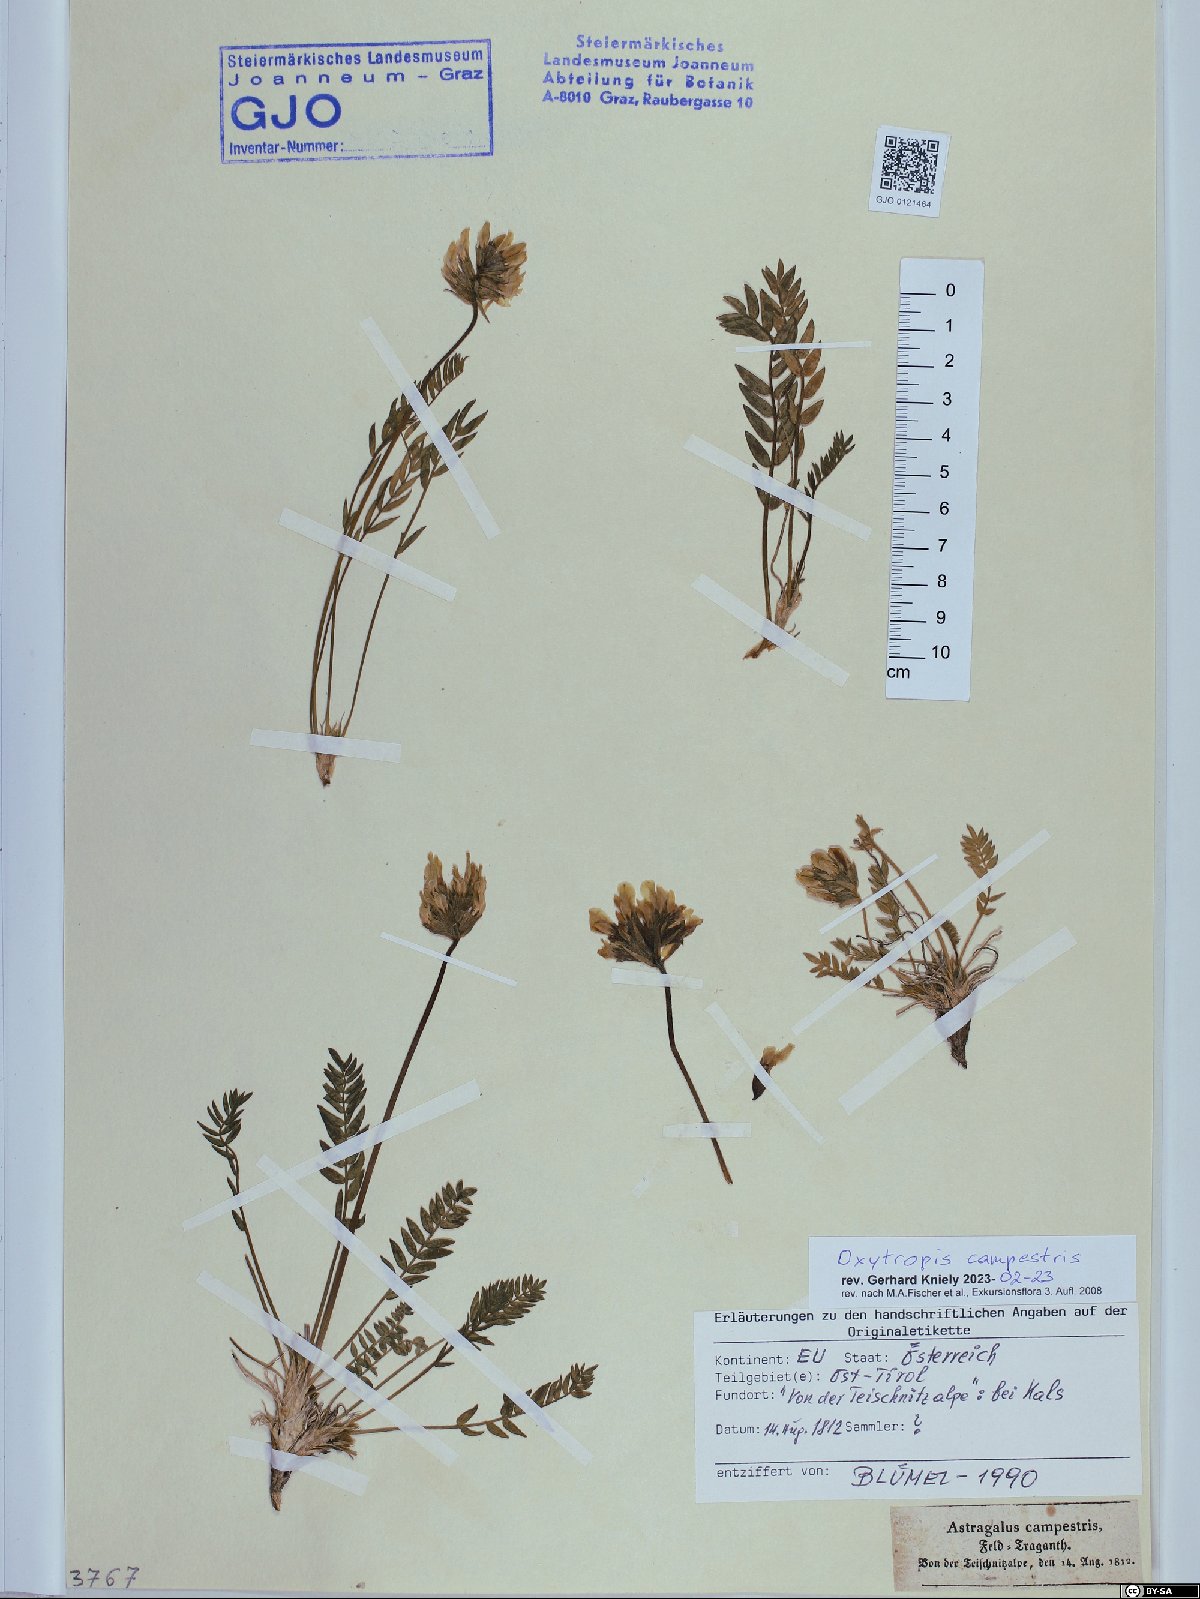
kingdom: Plantae
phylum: Tracheophyta
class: Magnoliopsida
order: Fabales
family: Fabaceae
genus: Oxytropis
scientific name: Oxytropis campestris
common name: Field locoweed
